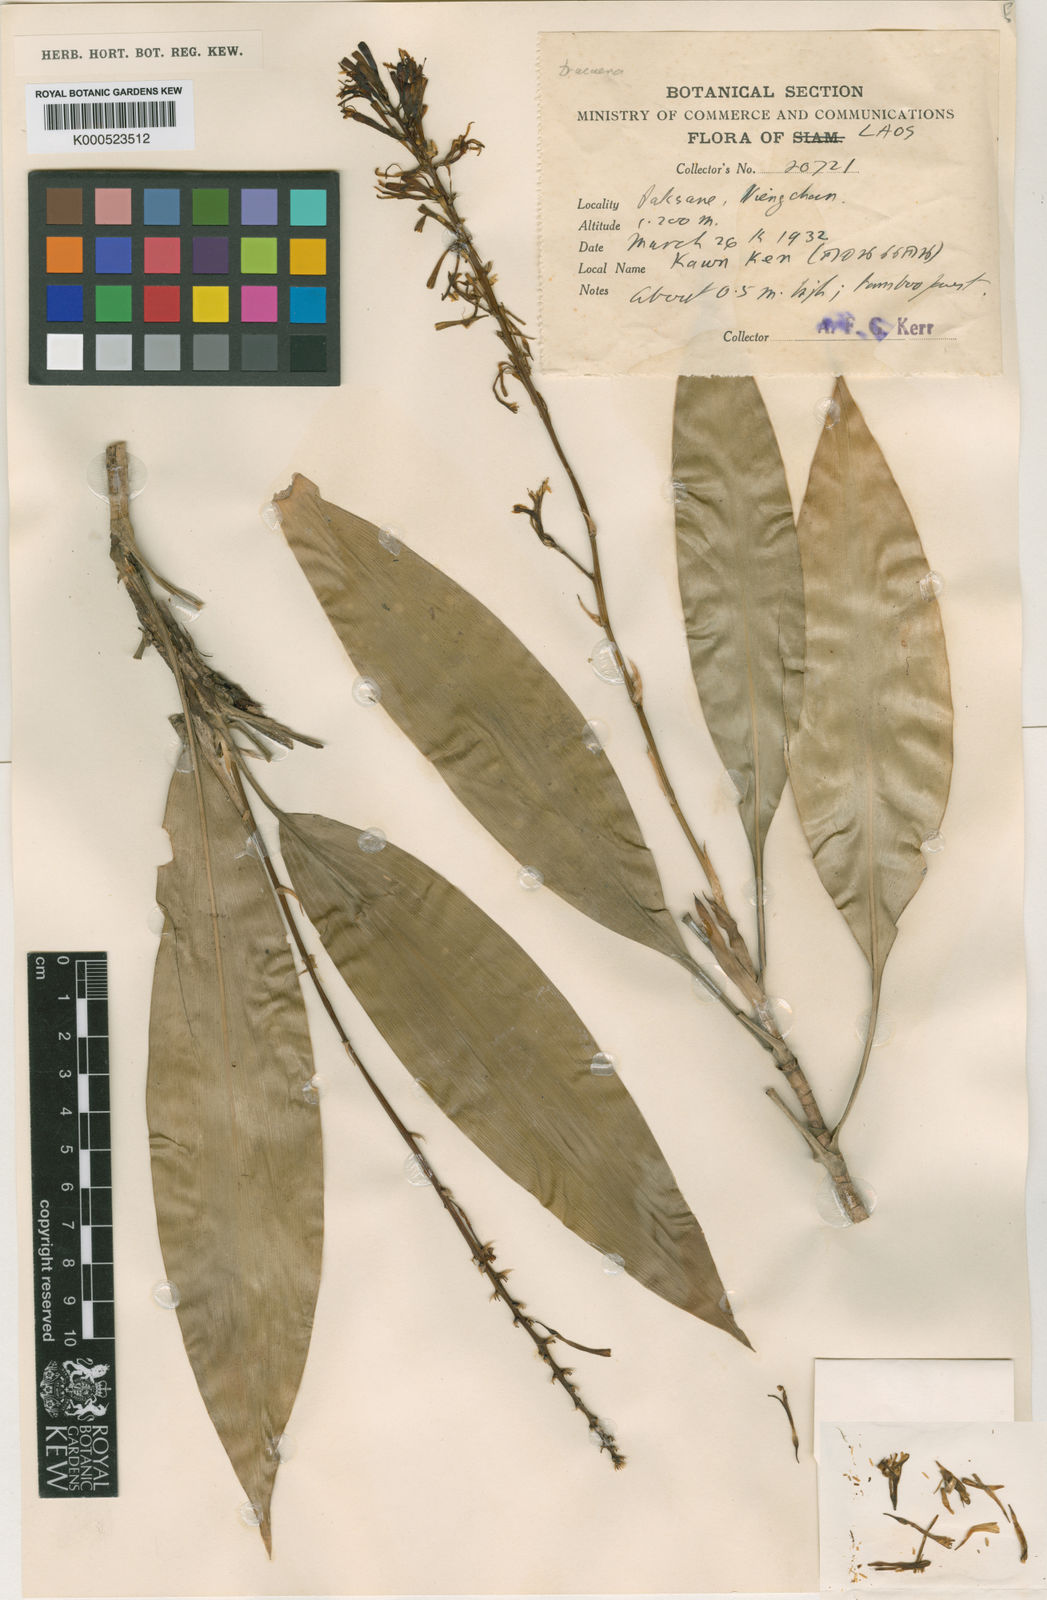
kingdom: Plantae
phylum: Tracheophyta
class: Liliopsida
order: Asparagales
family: Asparagaceae
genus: Dracaena
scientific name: Dracaena spicata
